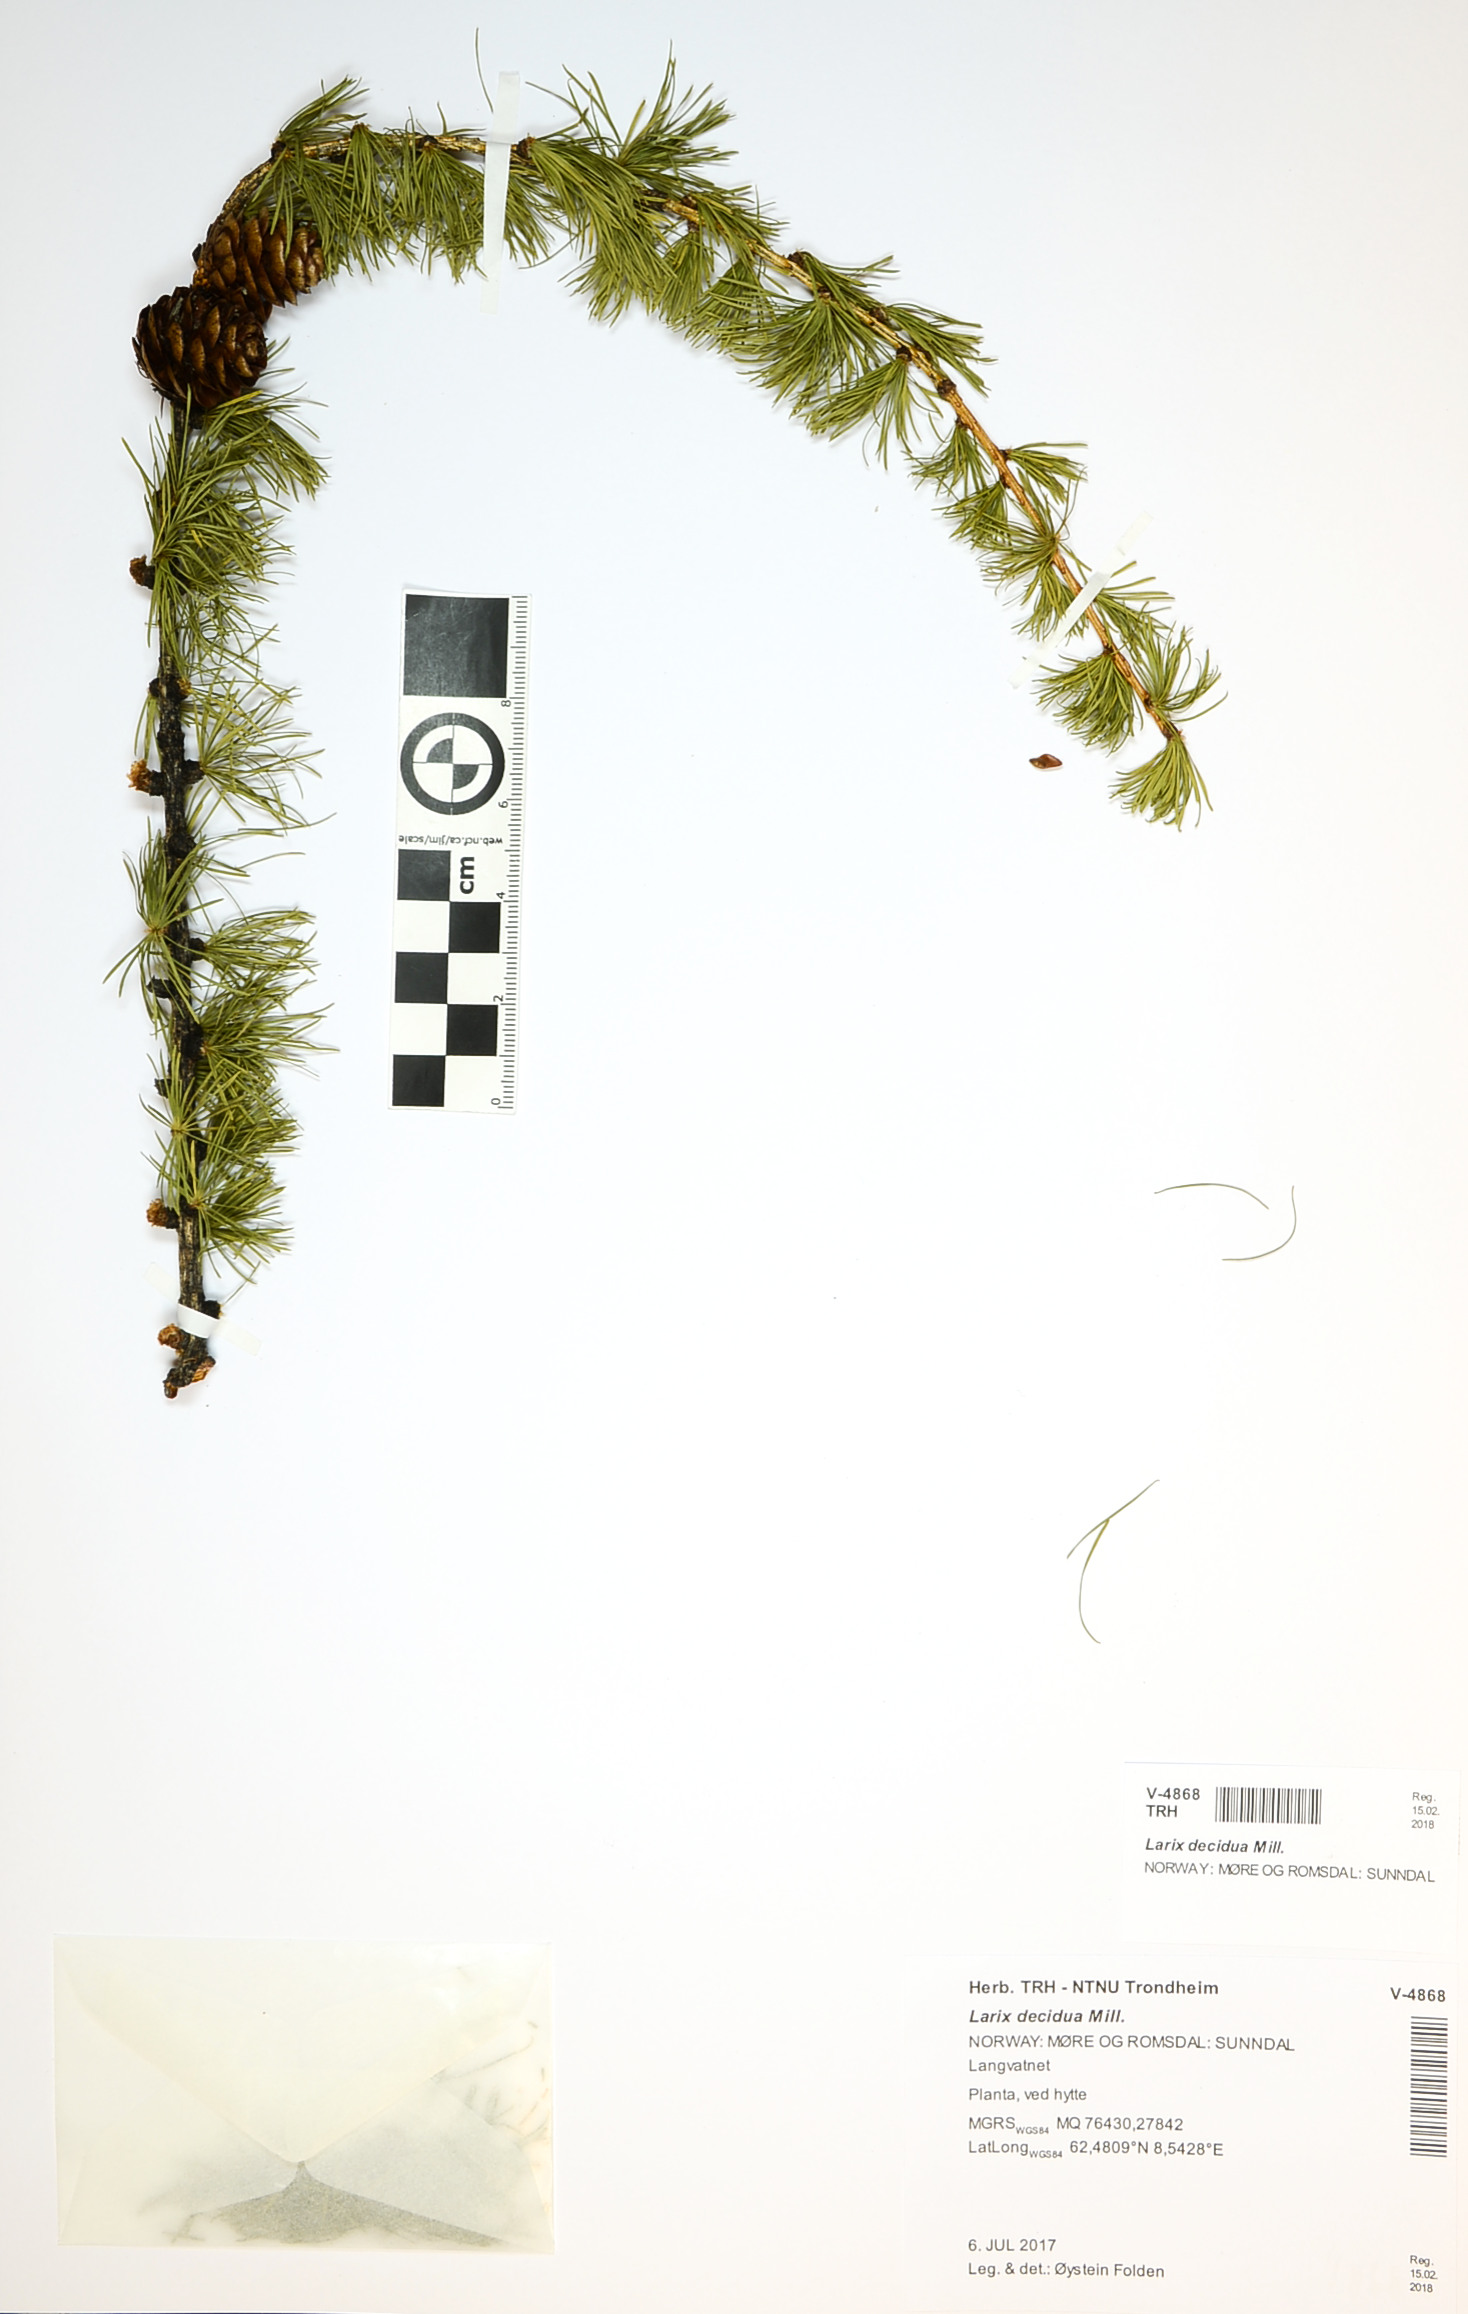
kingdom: Plantae
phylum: Tracheophyta
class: Pinopsida
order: Pinales
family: Pinaceae
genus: Larix
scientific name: Larix decidua
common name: European larch
